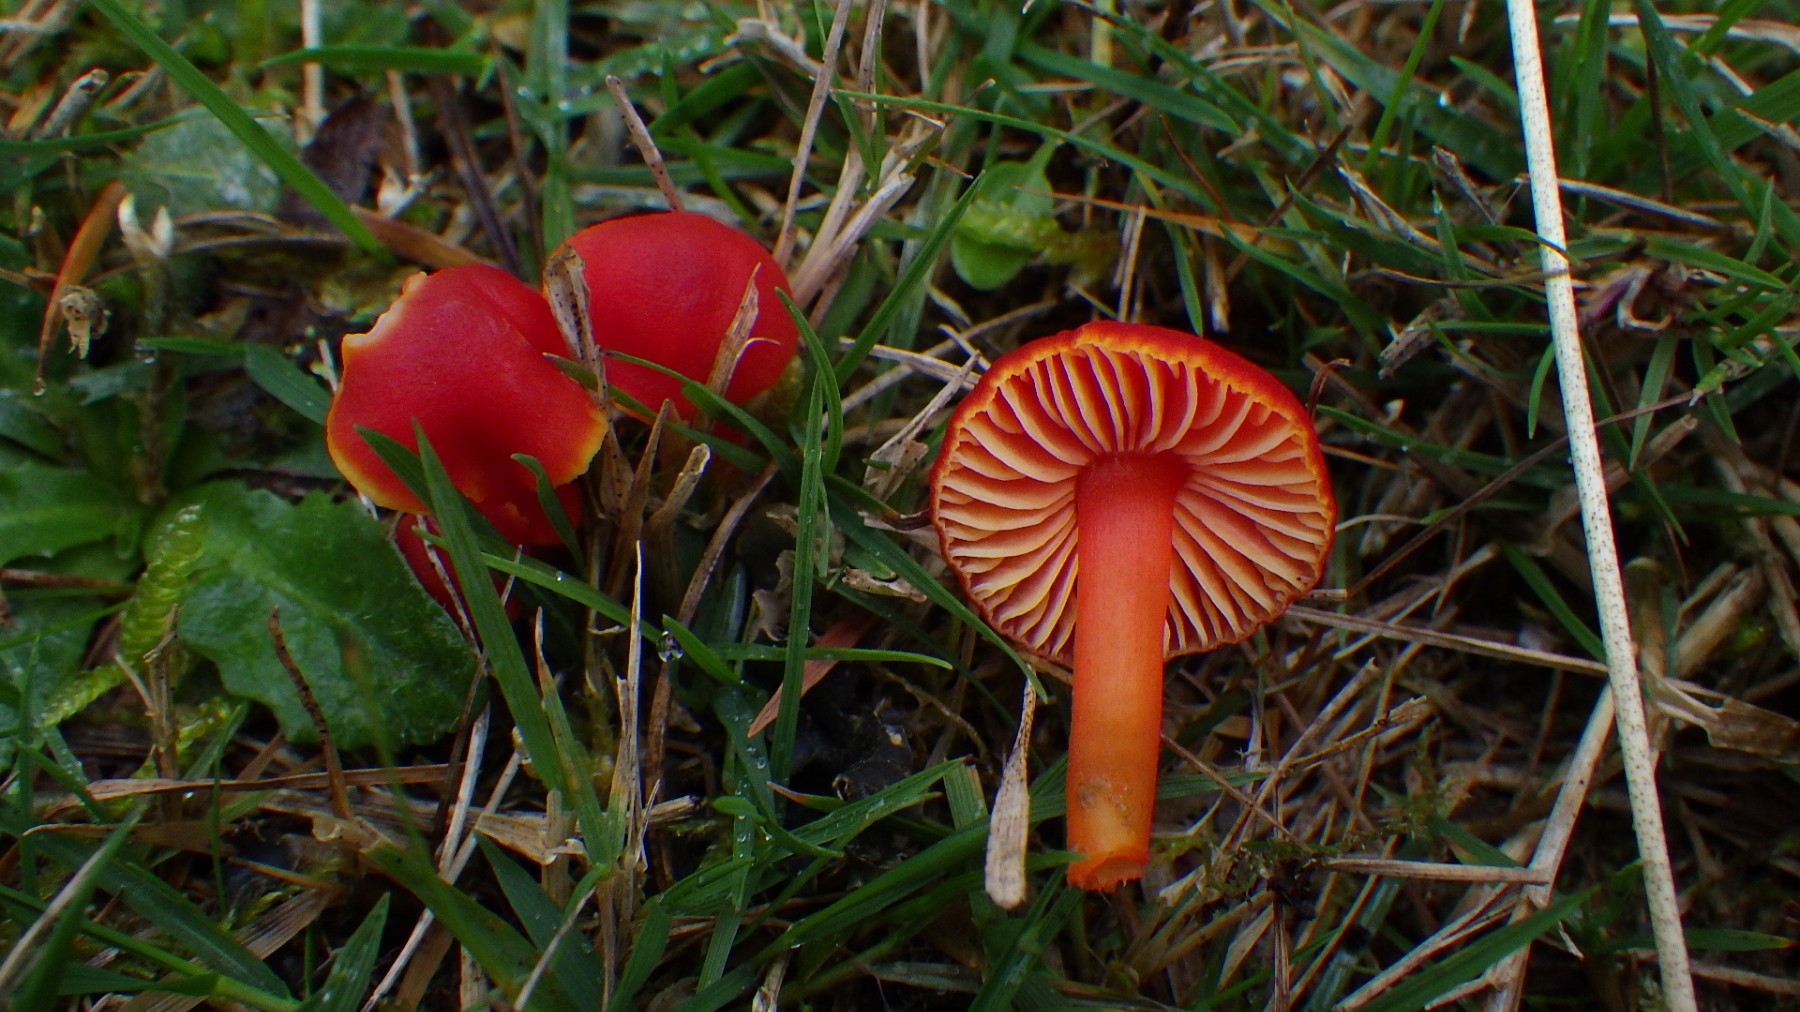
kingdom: Fungi
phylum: Basidiomycota
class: Agaricomycetes
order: Agaricales
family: Hygrophoraceae
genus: Hygrocybe
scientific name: Hygrocybe coccinea
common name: cinnober-vokshat
